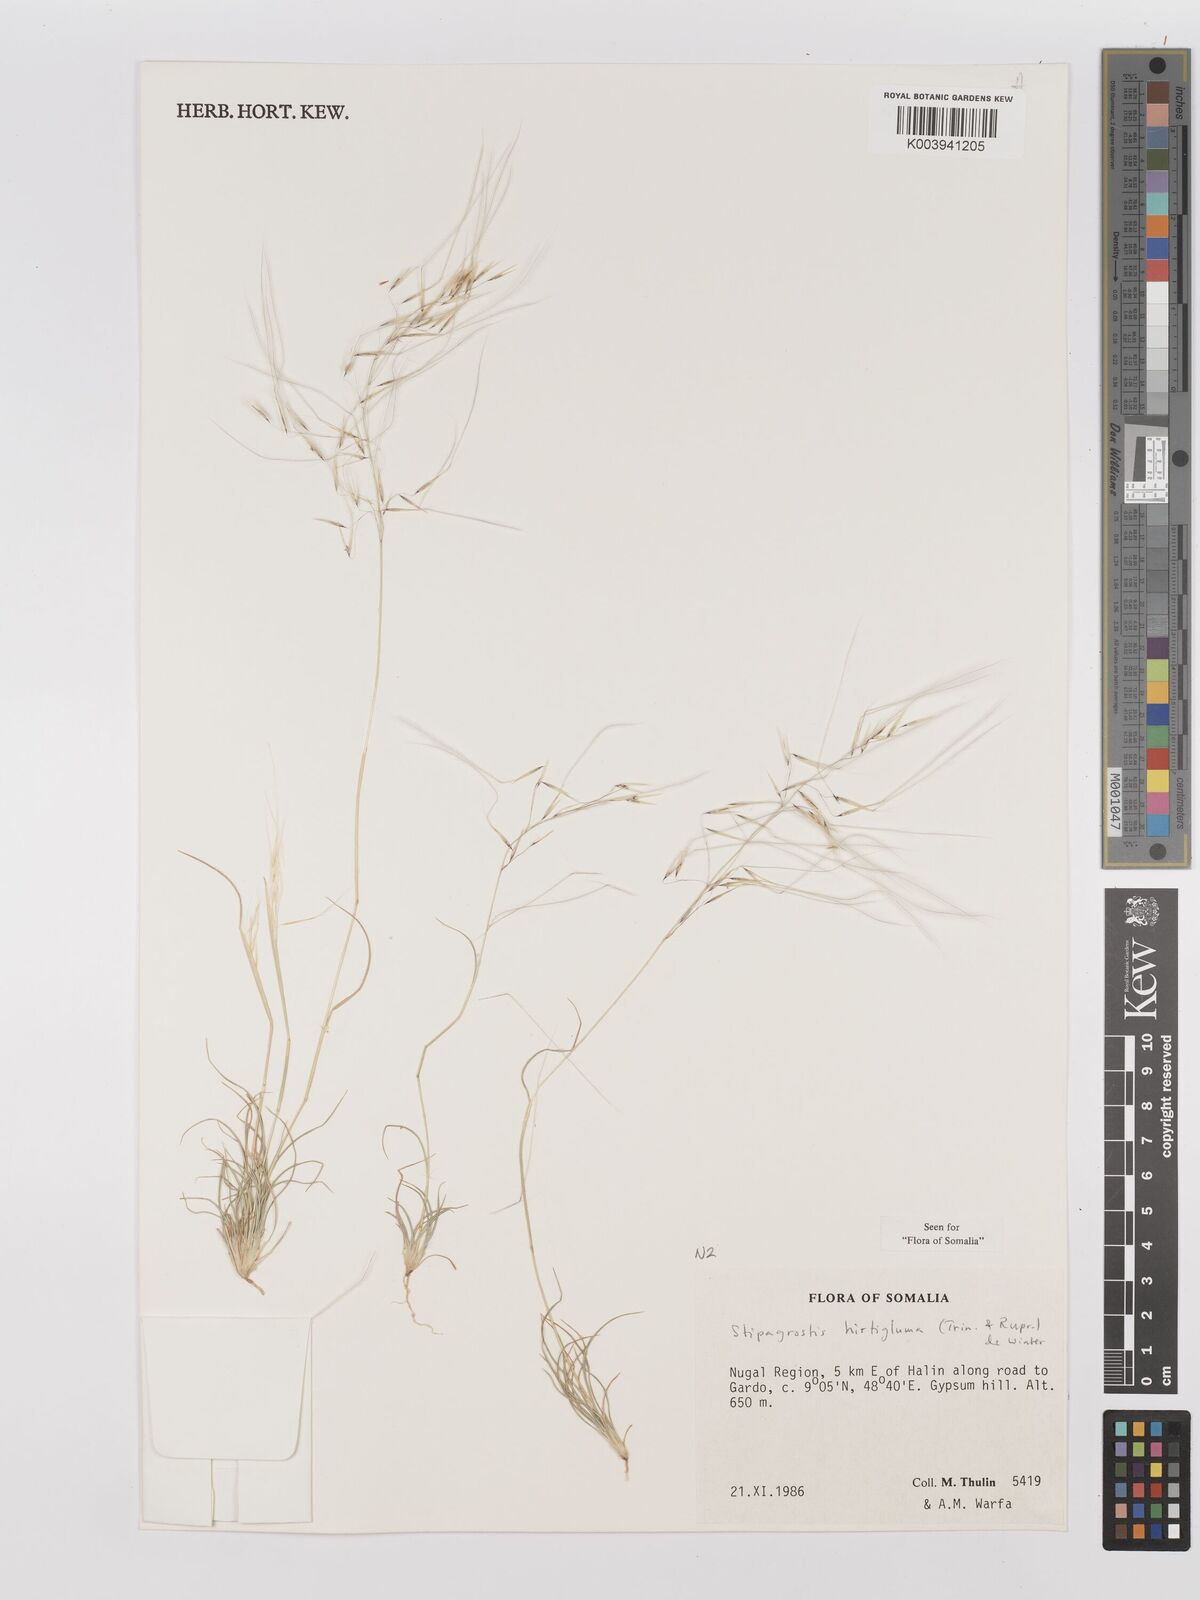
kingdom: Plantae
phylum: Tracheophyta
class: Liliopsida
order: Poales
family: Poaceae
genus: Stipagrostis
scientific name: Stipagrostis hirtigluma
